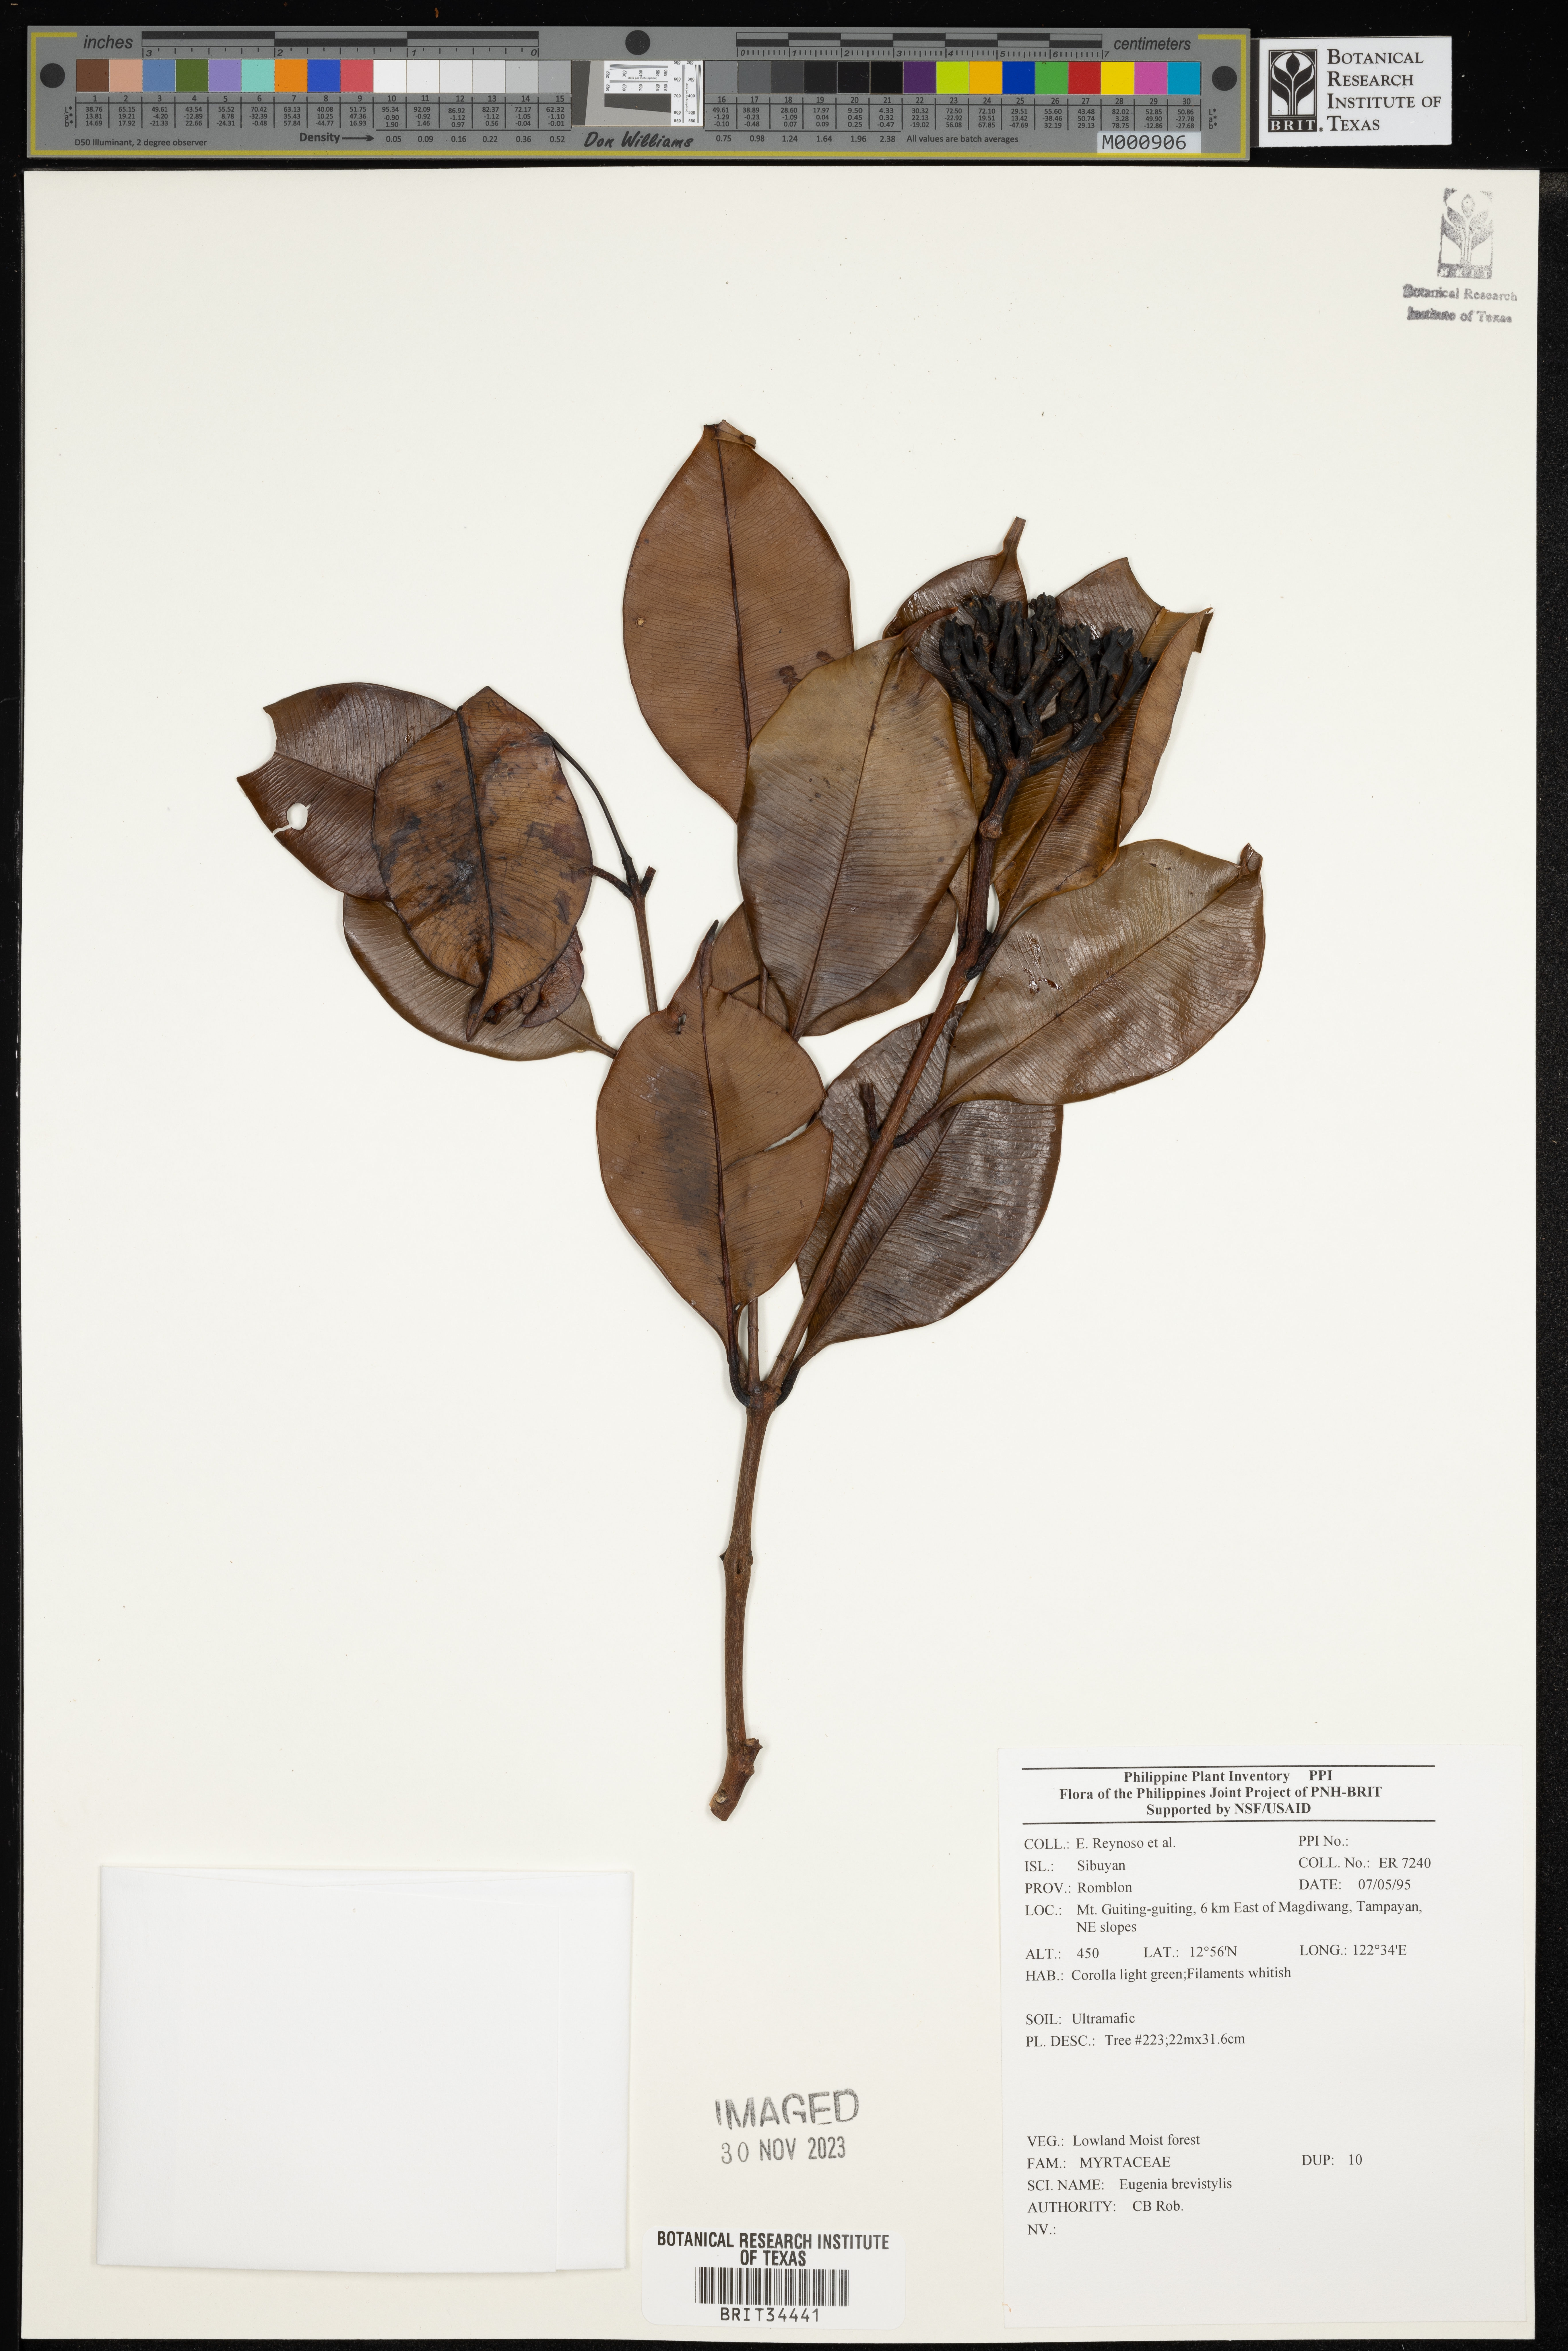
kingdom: Plantae
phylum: Tracheophyta
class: Magnoliopsida
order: Myrtales
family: Myrtaceae
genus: Eugenia
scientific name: Eugenia
